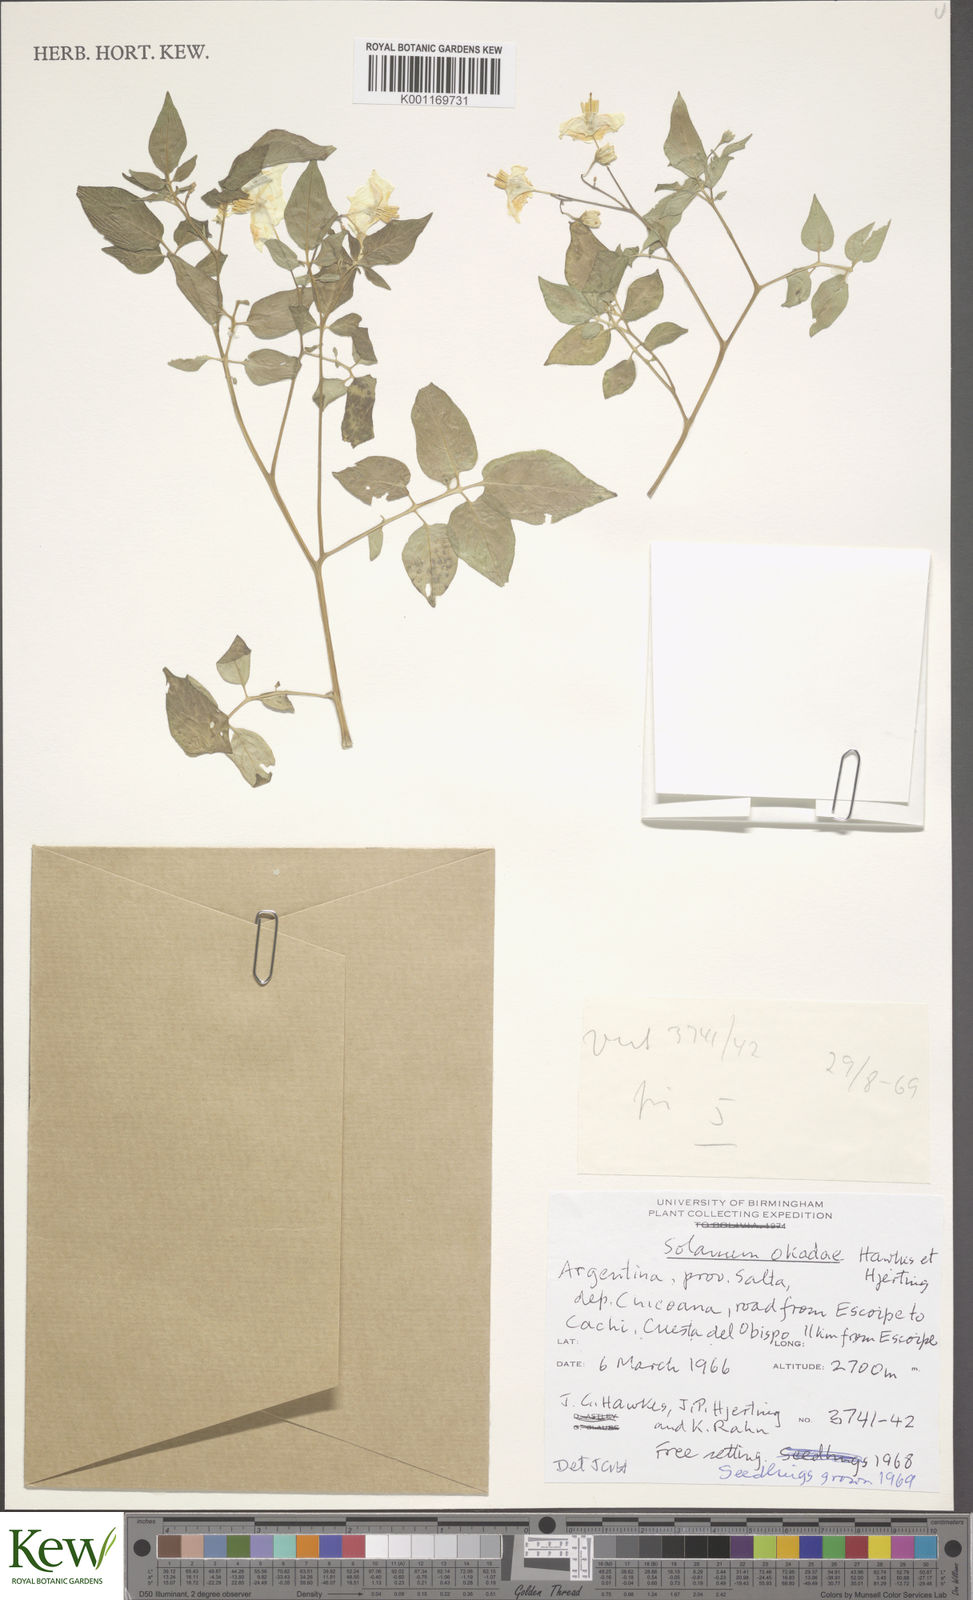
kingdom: Plantae
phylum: Tracheophyta
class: Magnoliopsida
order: Solanales
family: Solanaceae
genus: Solanum
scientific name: Solanum okadae
